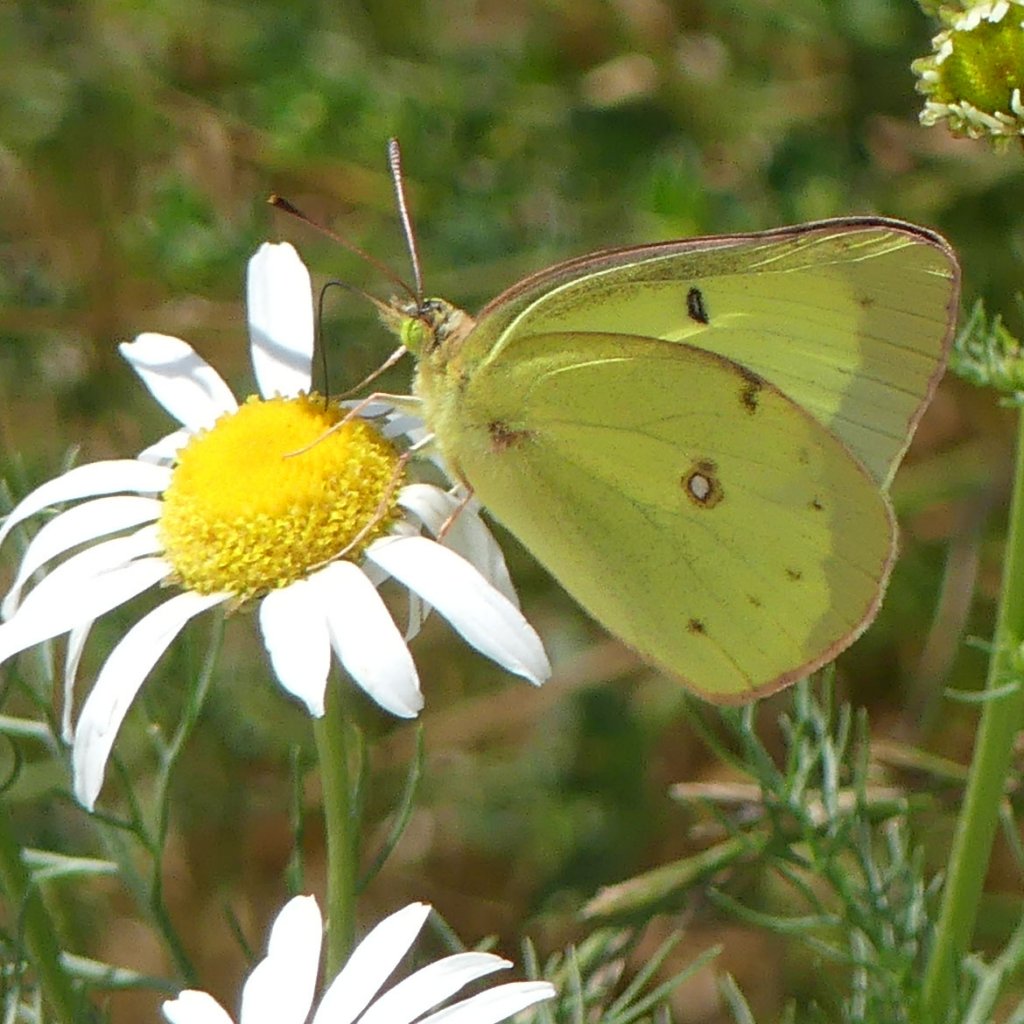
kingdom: Animalia
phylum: Arthropoda
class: Insecta
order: Lepidoptera
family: Pieridae
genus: Colias
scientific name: Colias philodice
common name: Clouded Sulphur
